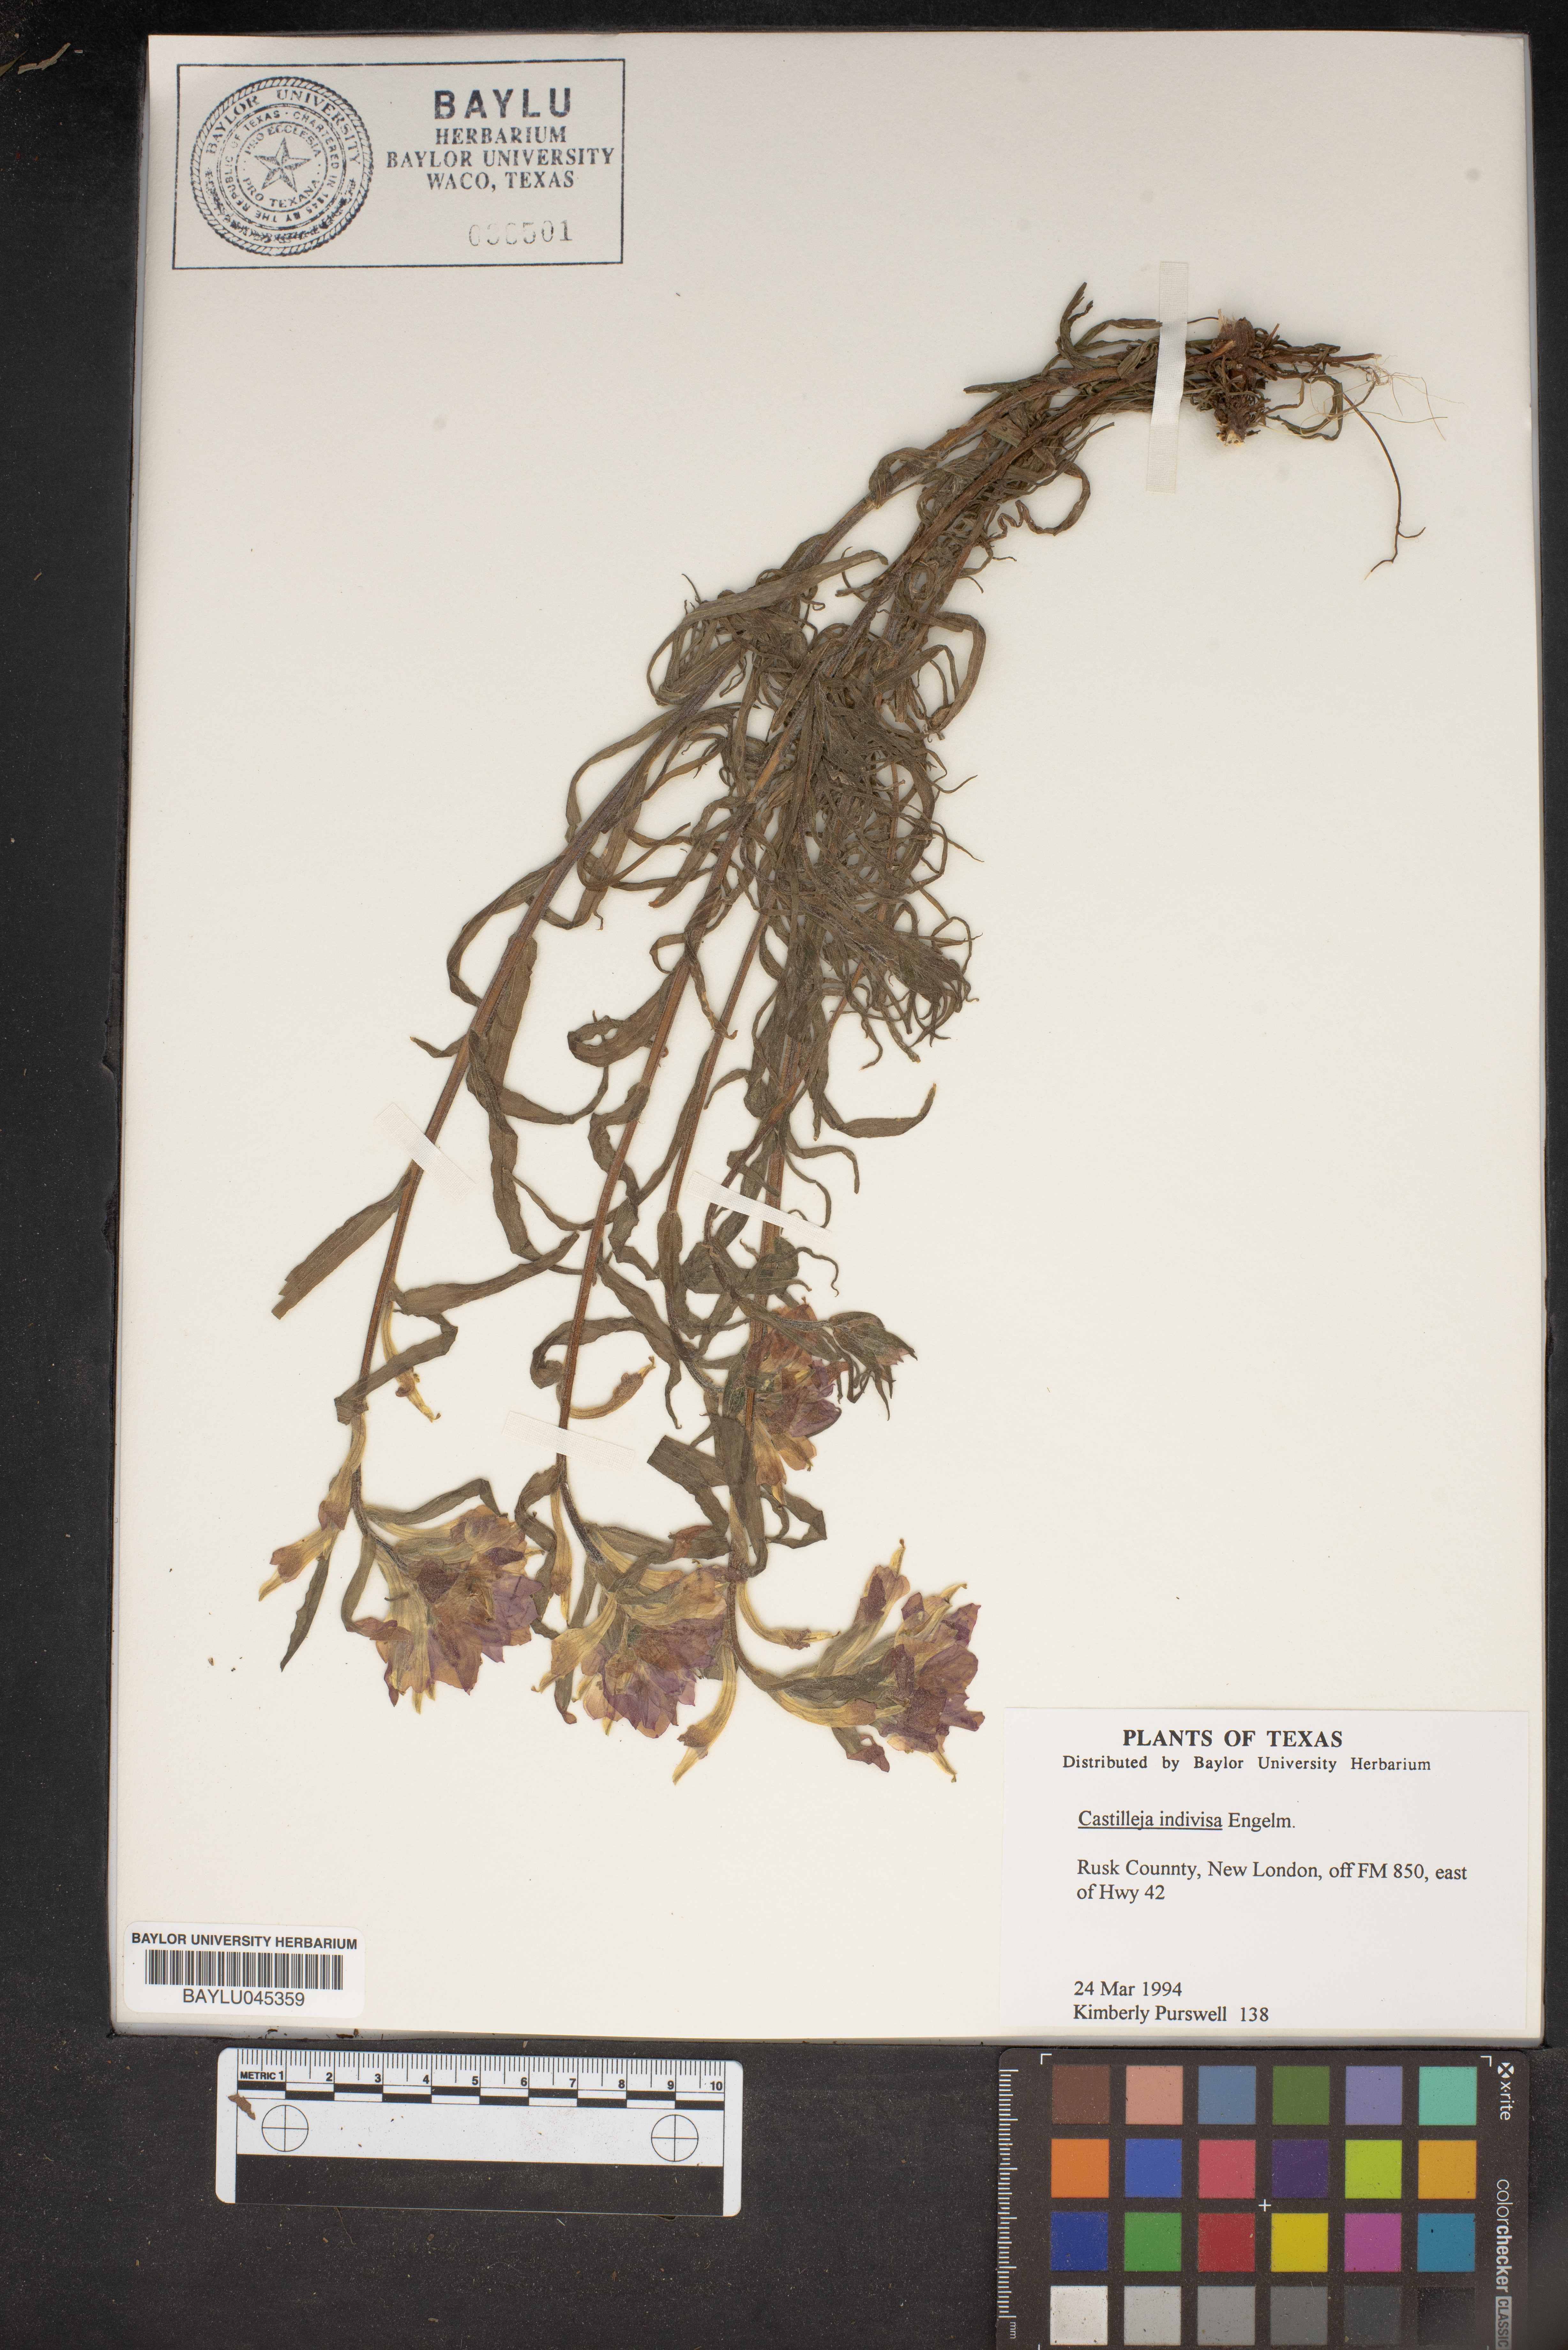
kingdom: Plantae
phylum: Tracheophyta
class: Magnoliopsida
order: Lamiales
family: Orobanchaceae
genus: Castilleja
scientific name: Castilleja indivisa
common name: Texas paintbrush
